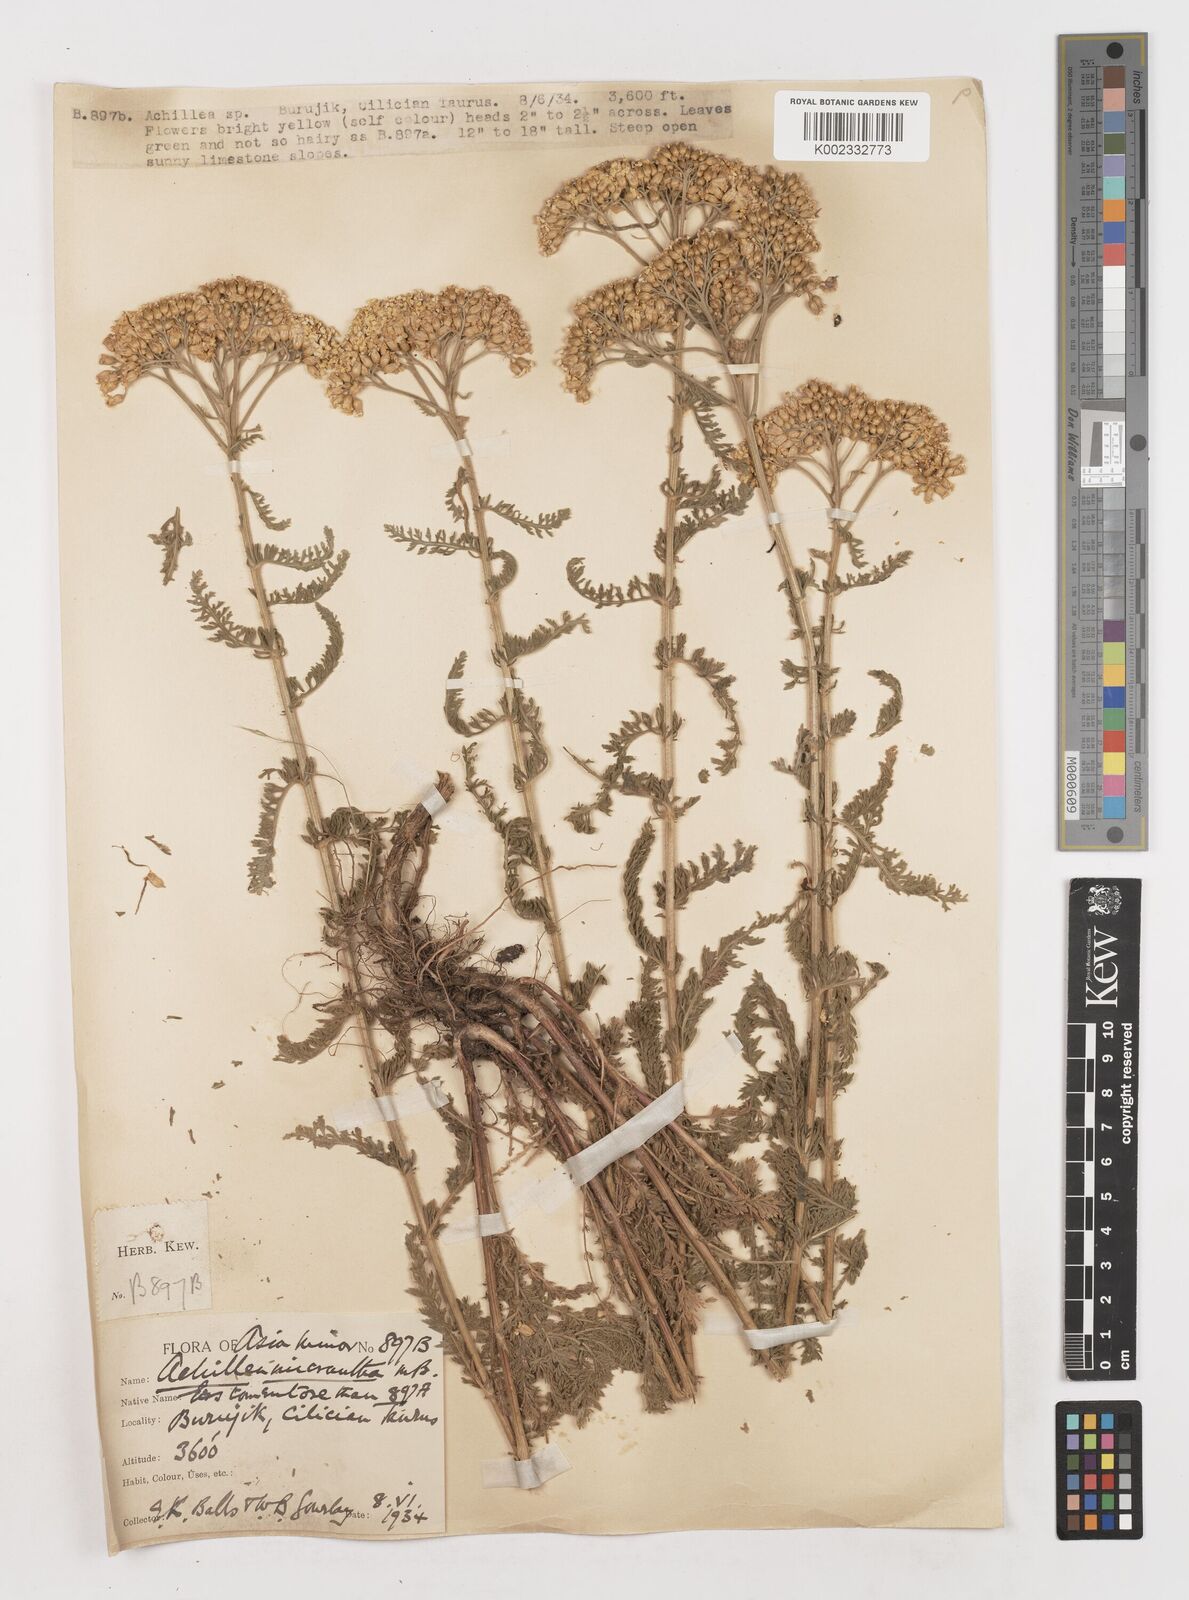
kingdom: Plantae
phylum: Tracheophyta
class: Magnoliopsida
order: Asterales
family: Asteraceae
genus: Achillea
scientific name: Achillea micrantha
